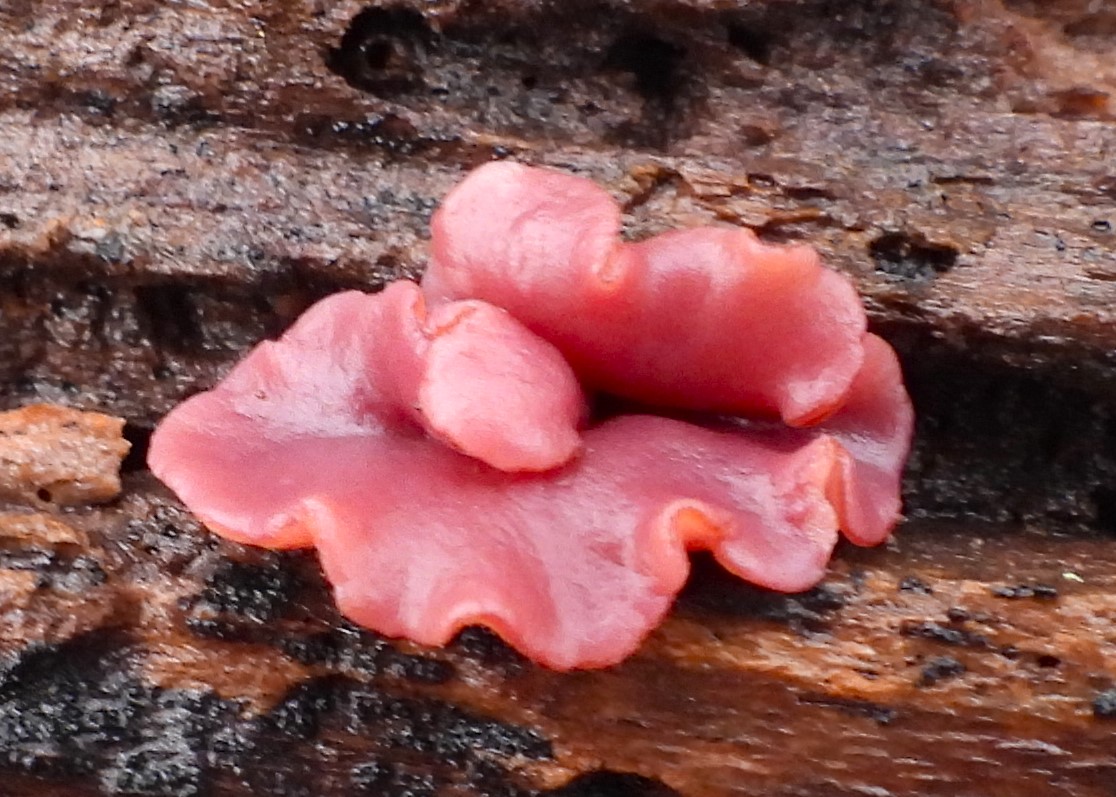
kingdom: Fungi
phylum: Ascomycota
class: Leotiomycetes
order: Helotiales
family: Gelatinodiscaceae
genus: Ascocoryne
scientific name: Ascocoryne cylichnium
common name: stor sejskive
